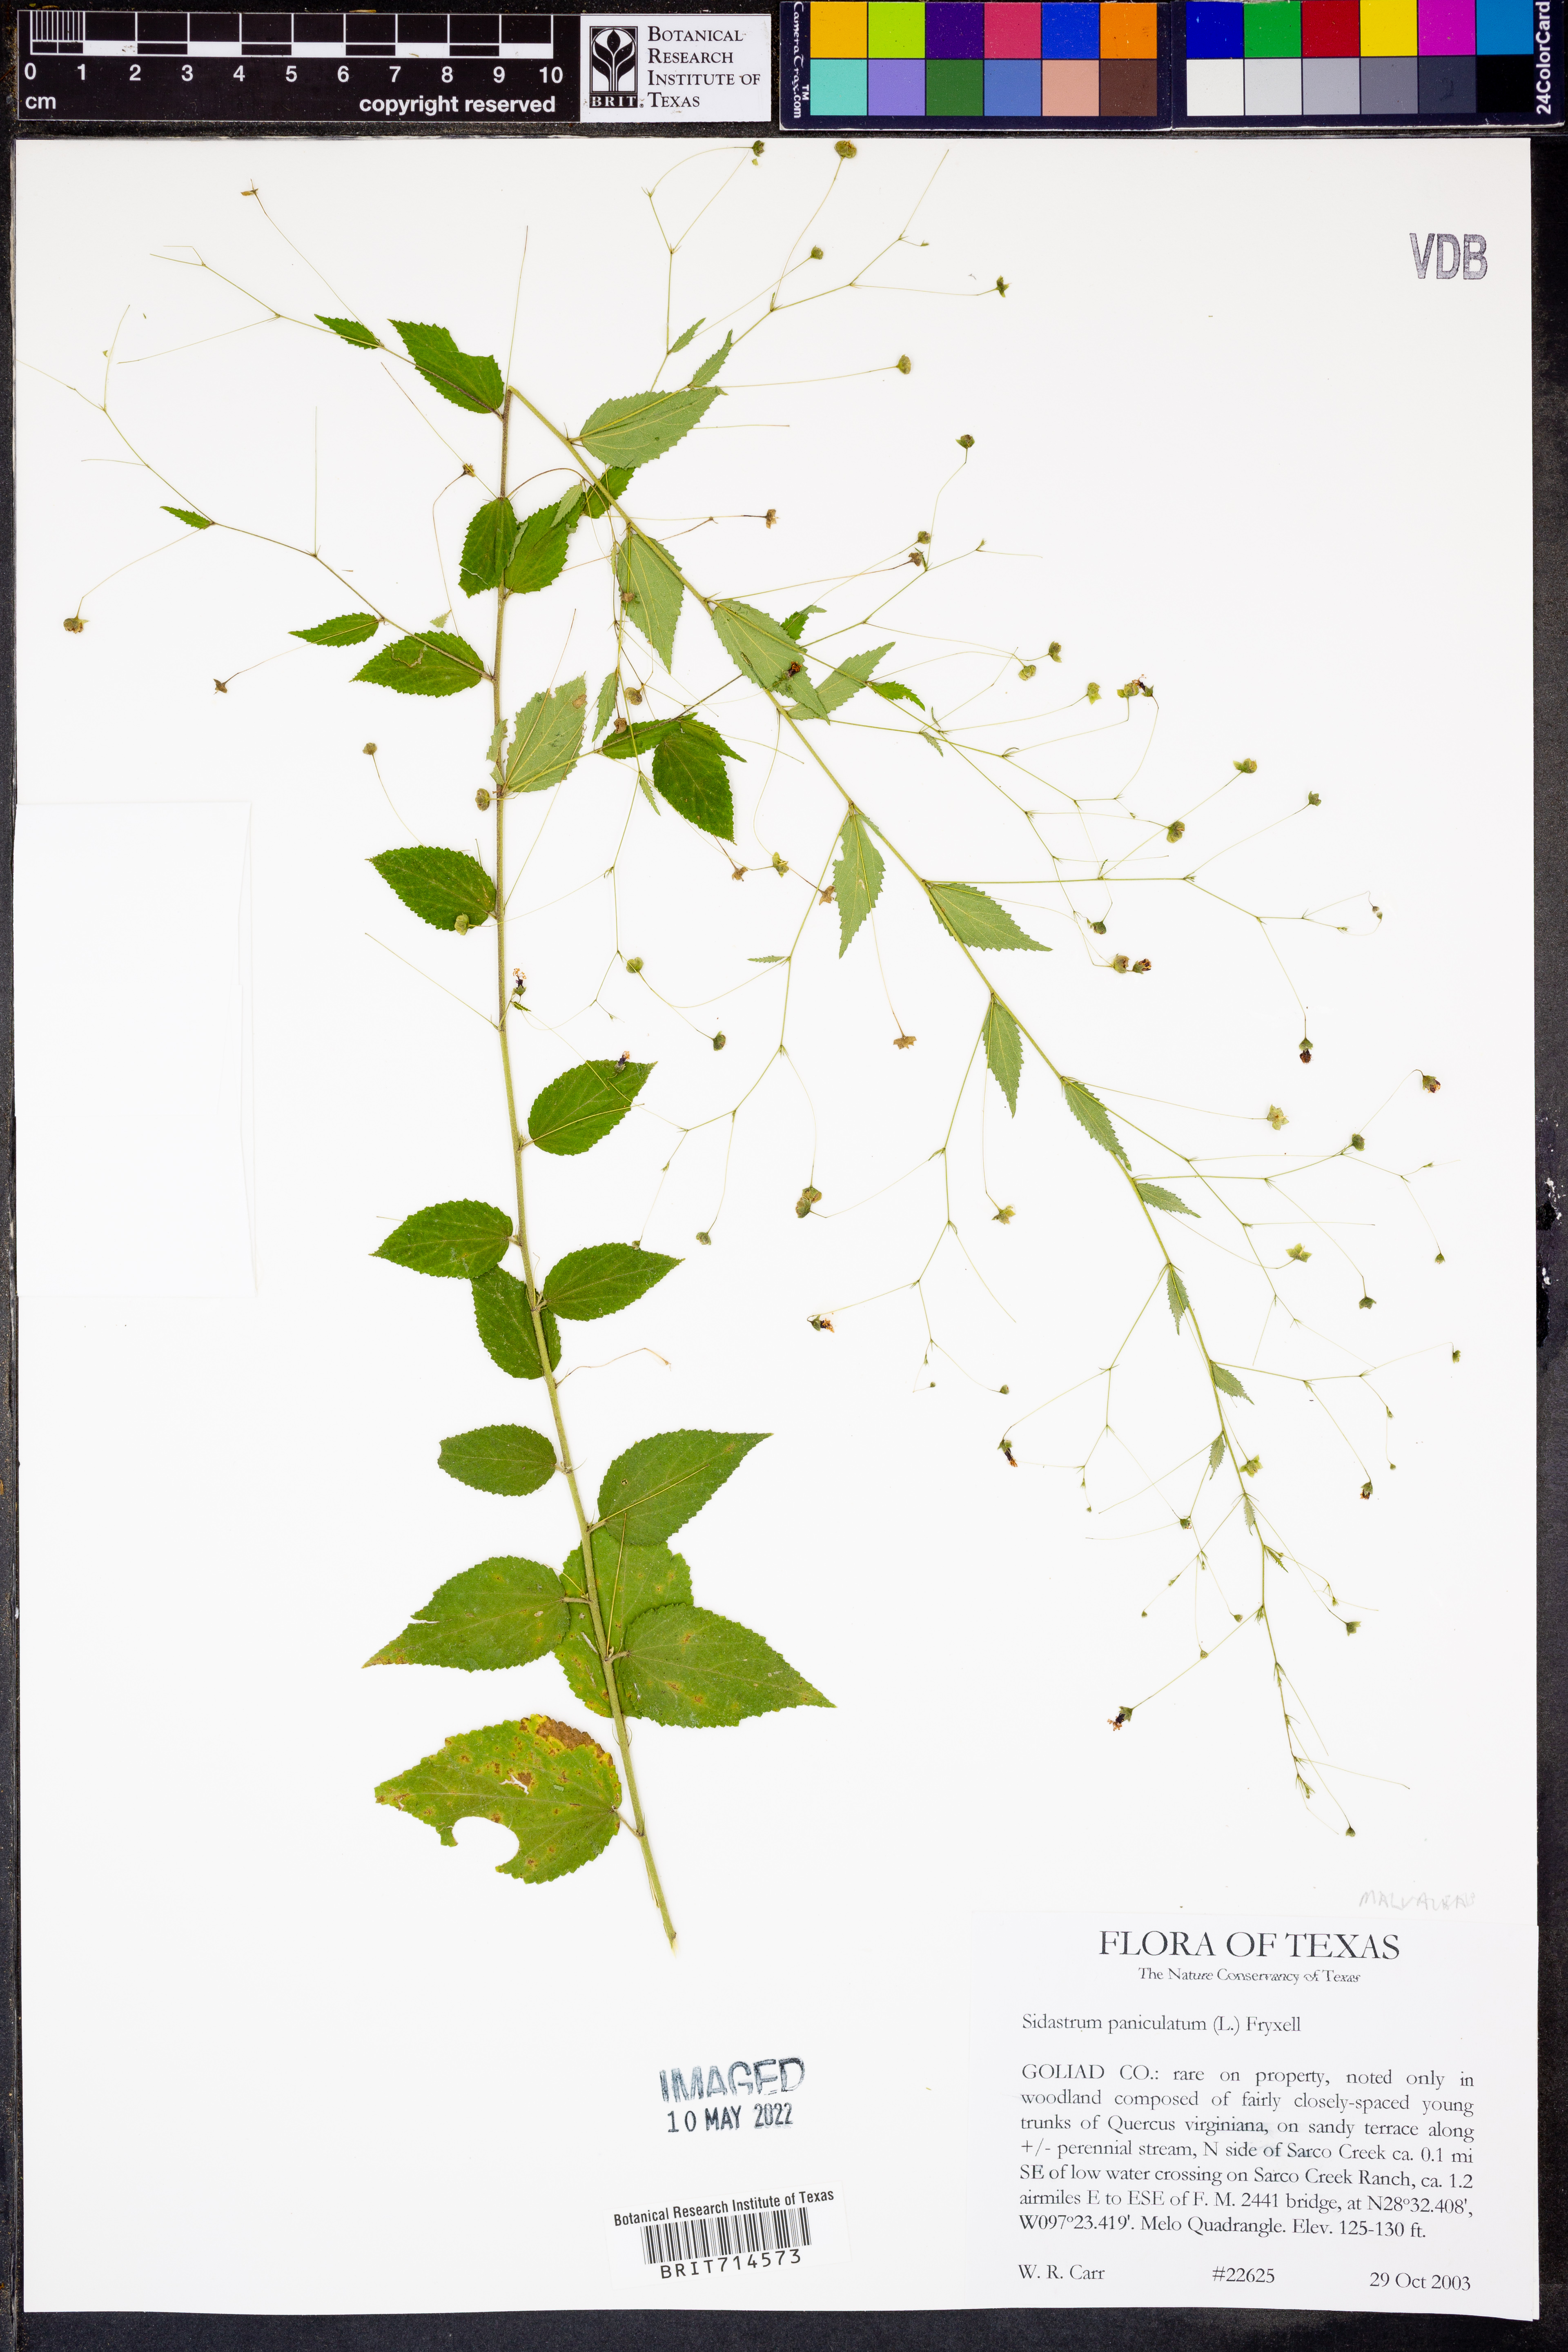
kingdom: Plantae
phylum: Tracheophyta
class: Magnoliopsida
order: Malvales
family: Malvaceae
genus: Sidastrum
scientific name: Sidastrum paniculatum
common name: Panicled sandmallow
